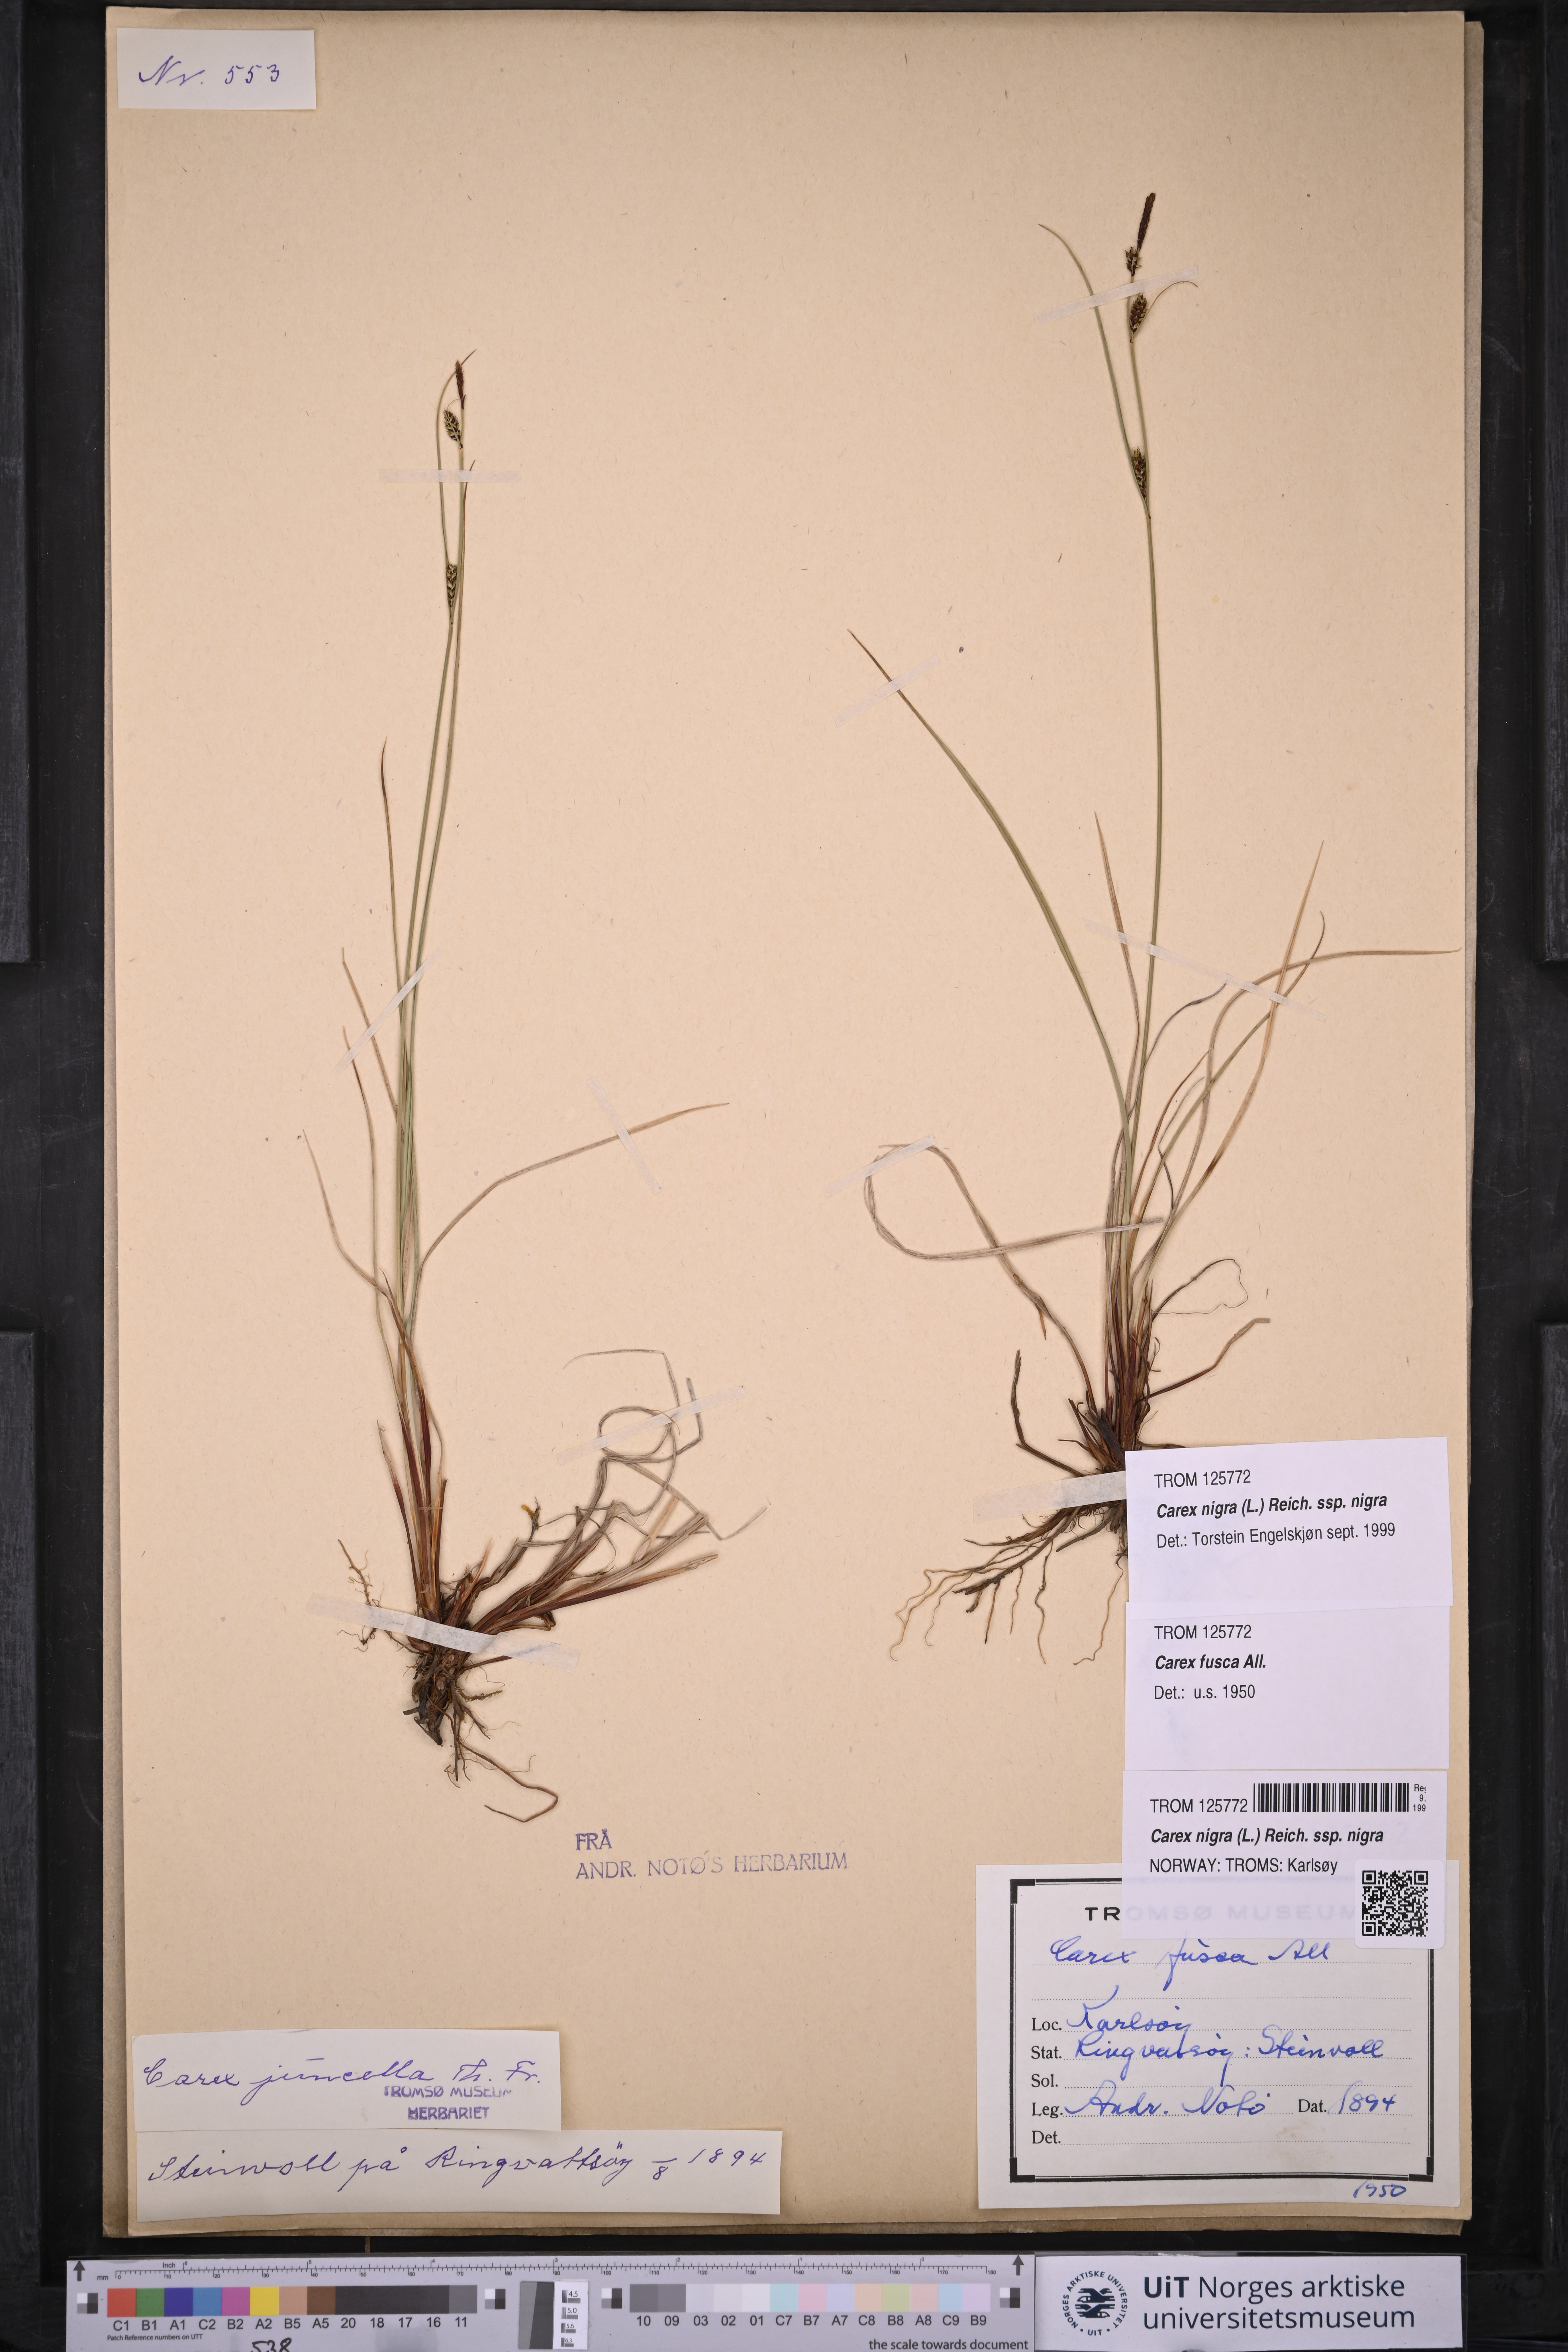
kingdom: Plantae
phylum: Tracheophyta
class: Liliopsida
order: Poales
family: Cyperaceae
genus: Carex
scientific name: Carex nigra
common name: Common sedge
